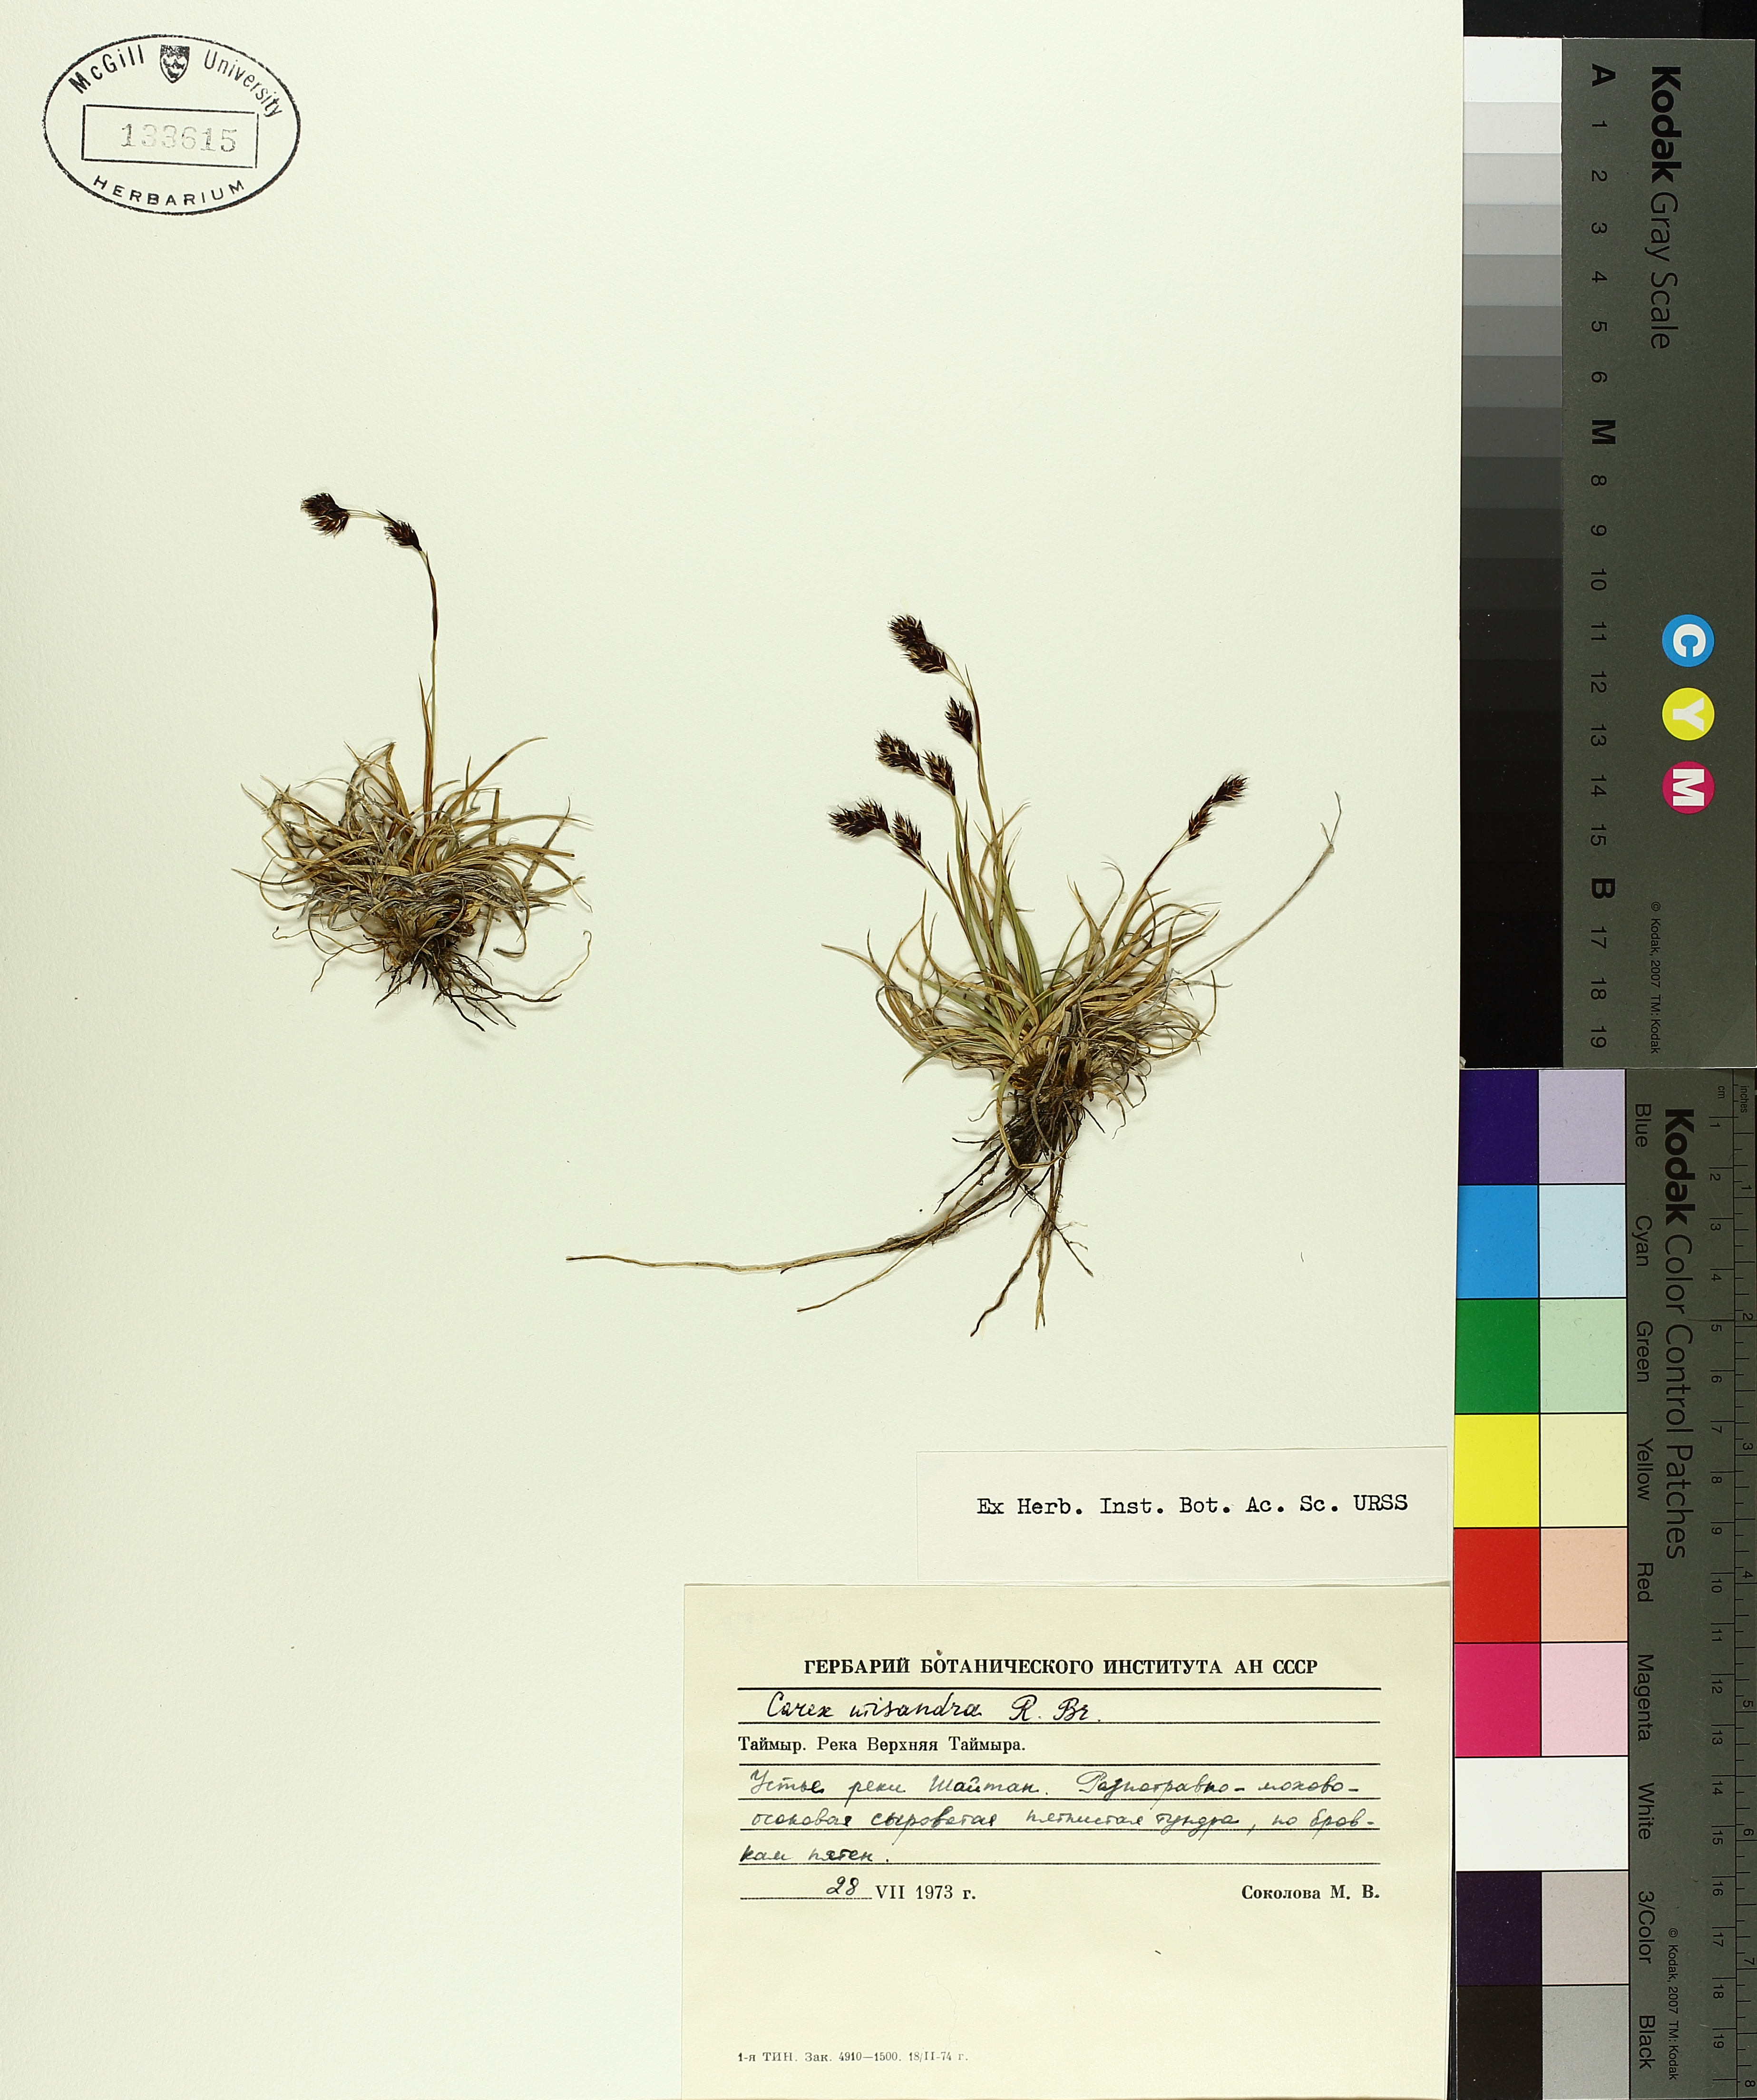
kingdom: Plantae
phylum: Tracheophyta
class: Liliopsida
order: Poales
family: Cyperaceae
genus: Carex
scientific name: Carex fuliginosa
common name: Few-flowered sedge
